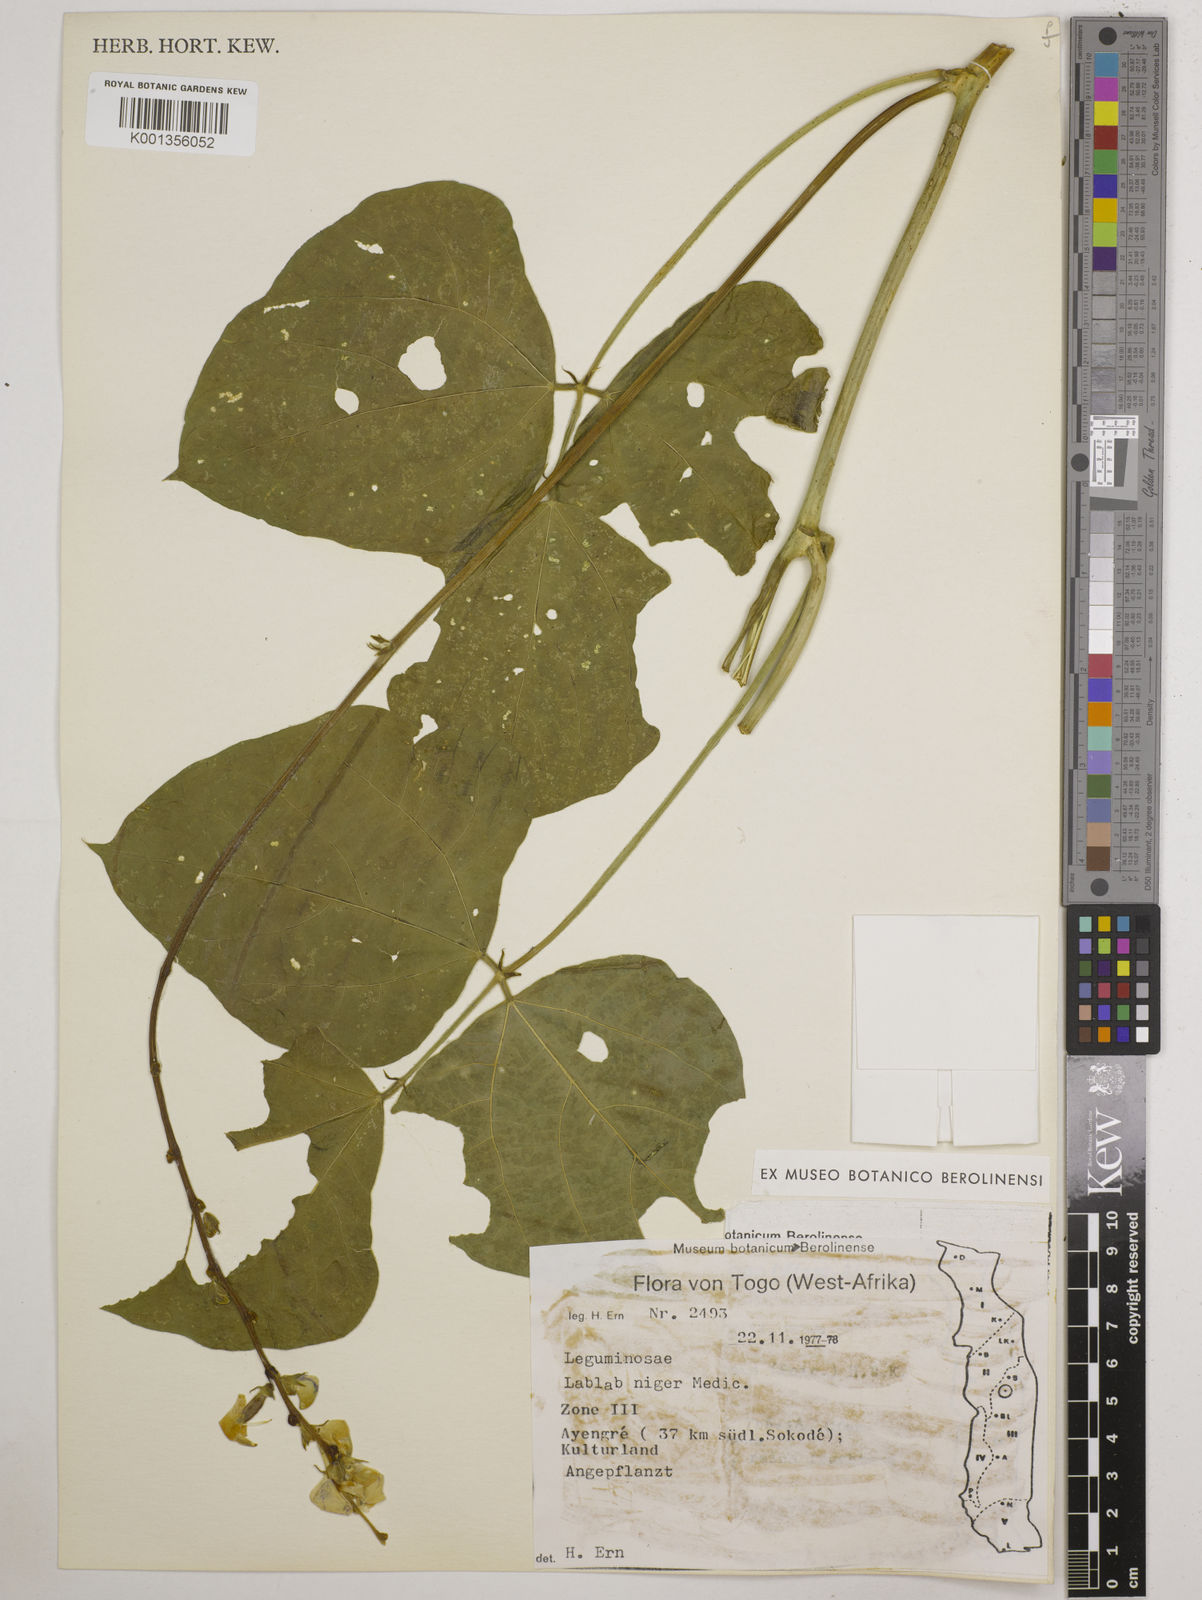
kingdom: Plantae
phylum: Tracheophyta
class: Magnoliopsida
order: Fabales
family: Fabaceae
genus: Lablab
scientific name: Lablab purpureus
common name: Lablab-bean
